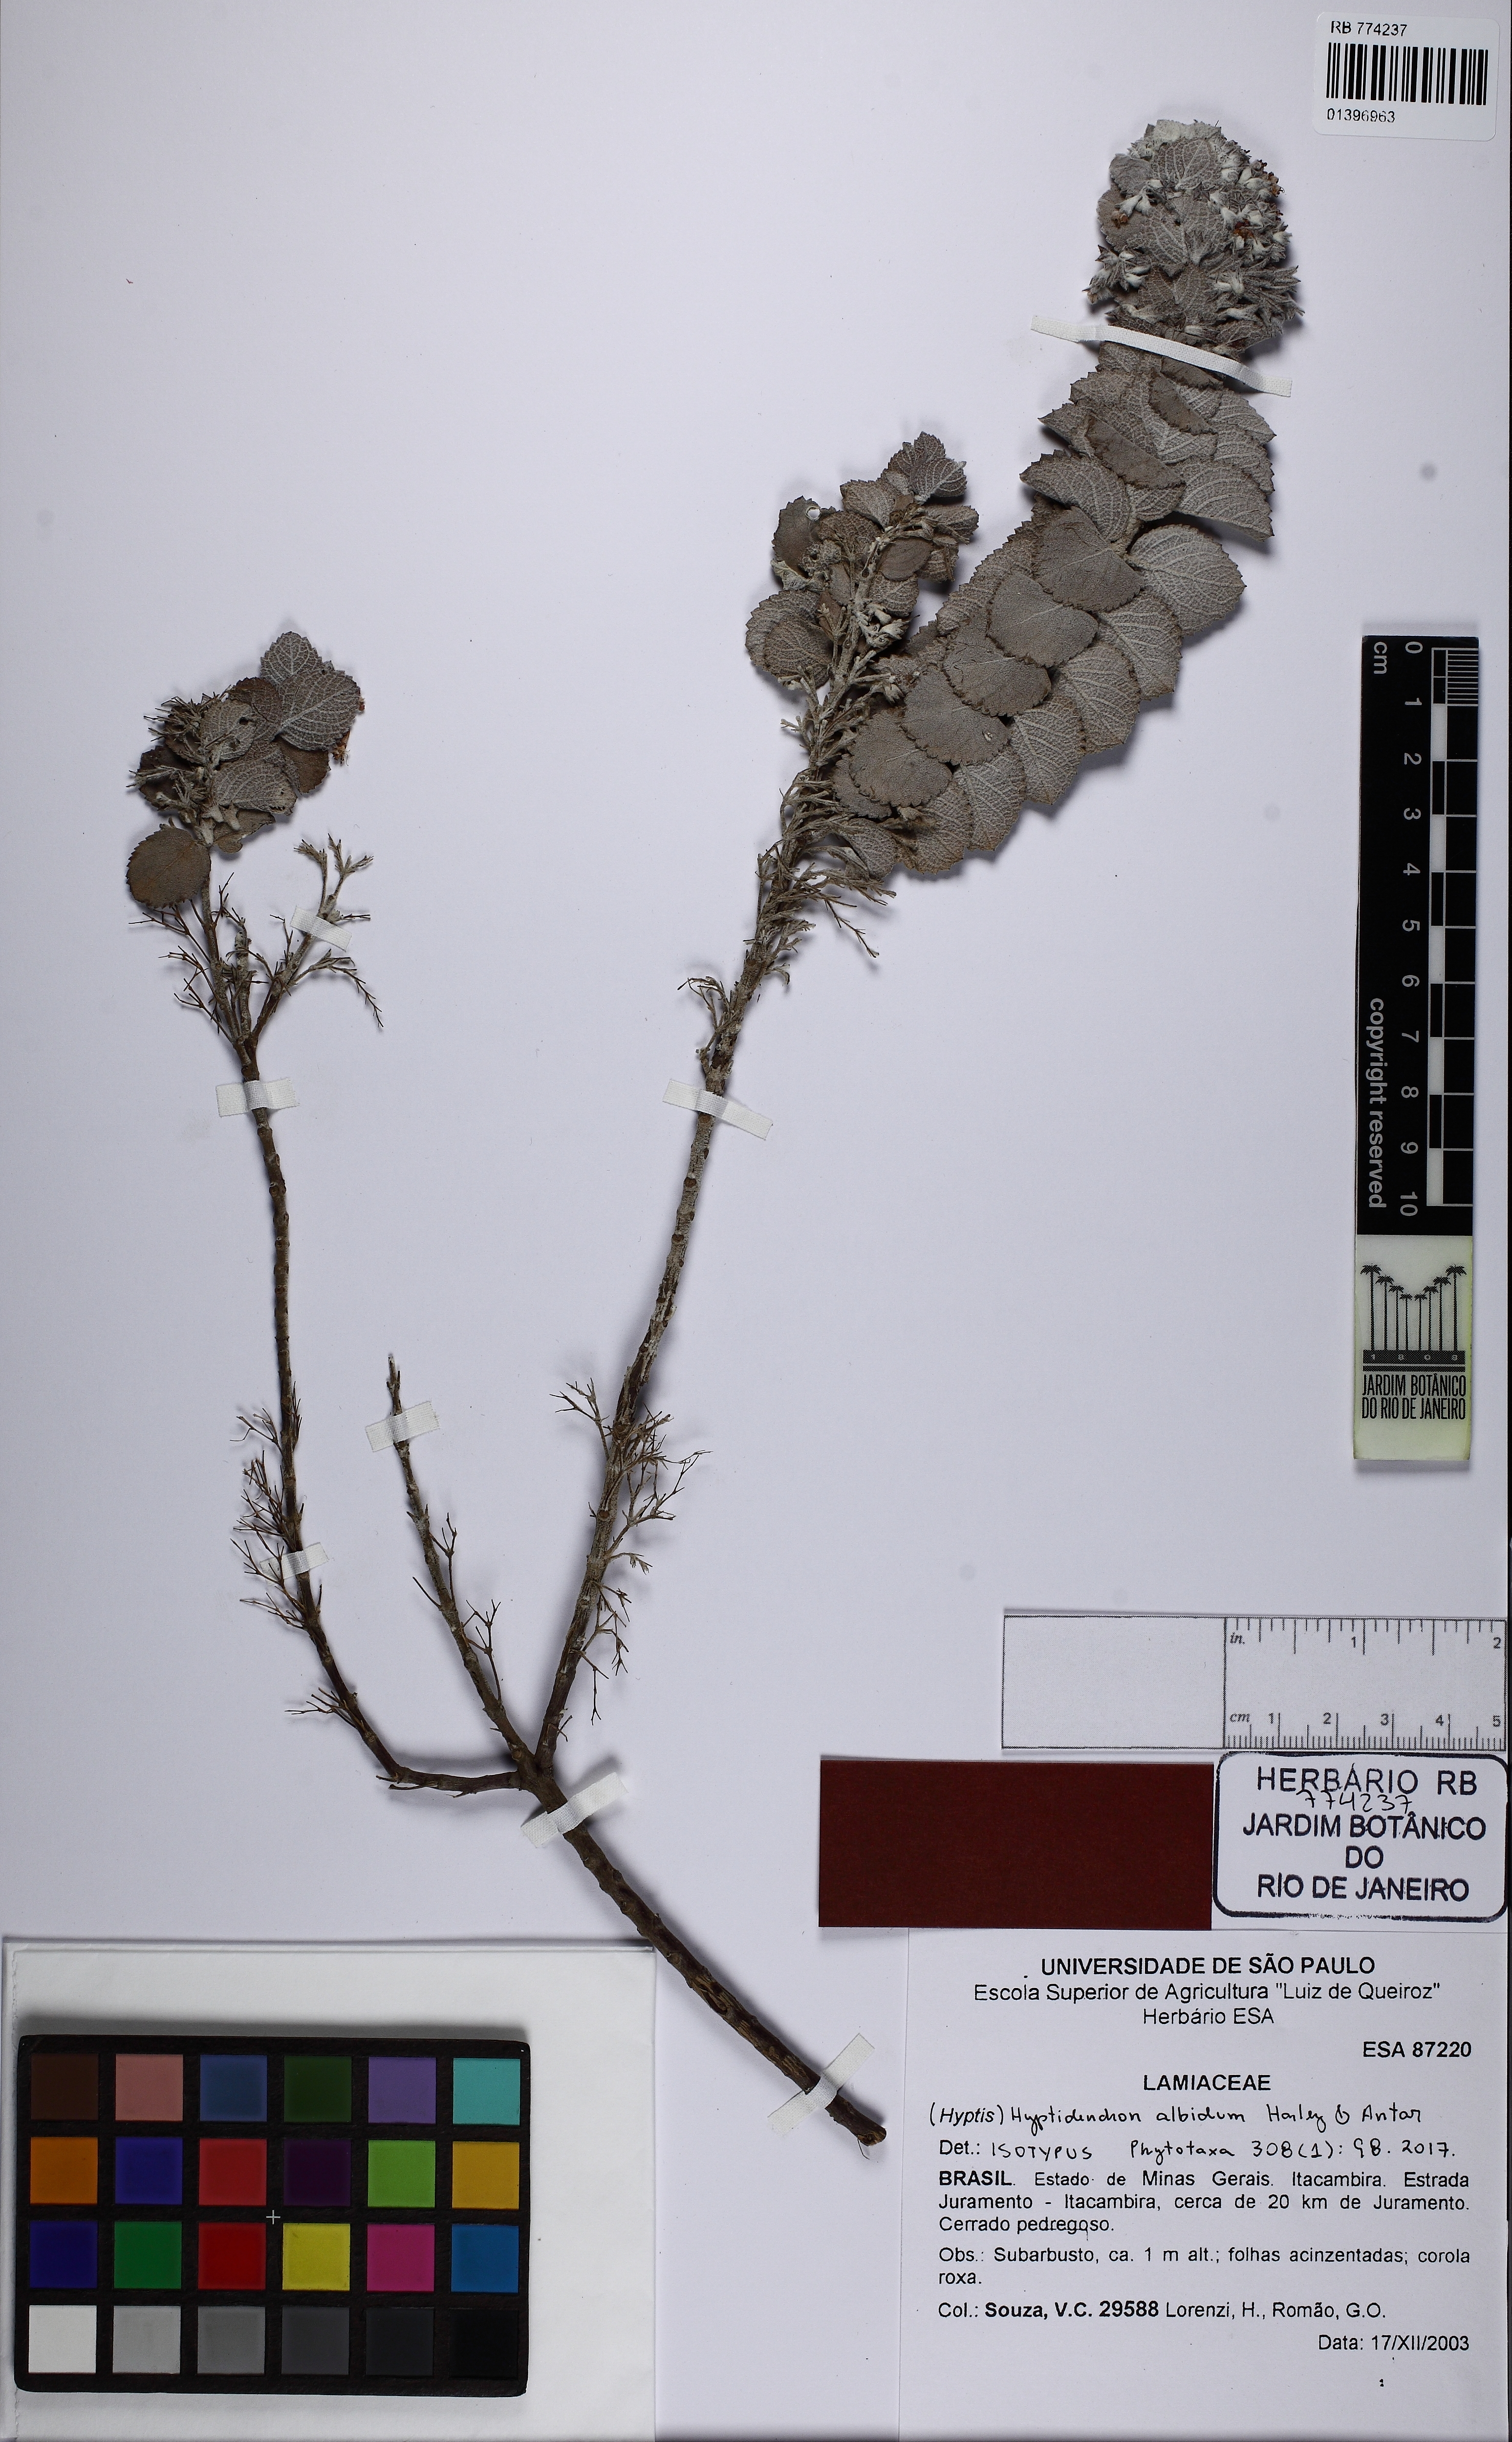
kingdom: Plantae
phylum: Tracheophyta
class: Magnoliopsida
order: Lamiales
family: Lamiaceae
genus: Hyptidendron
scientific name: Hyptidendron albidum
